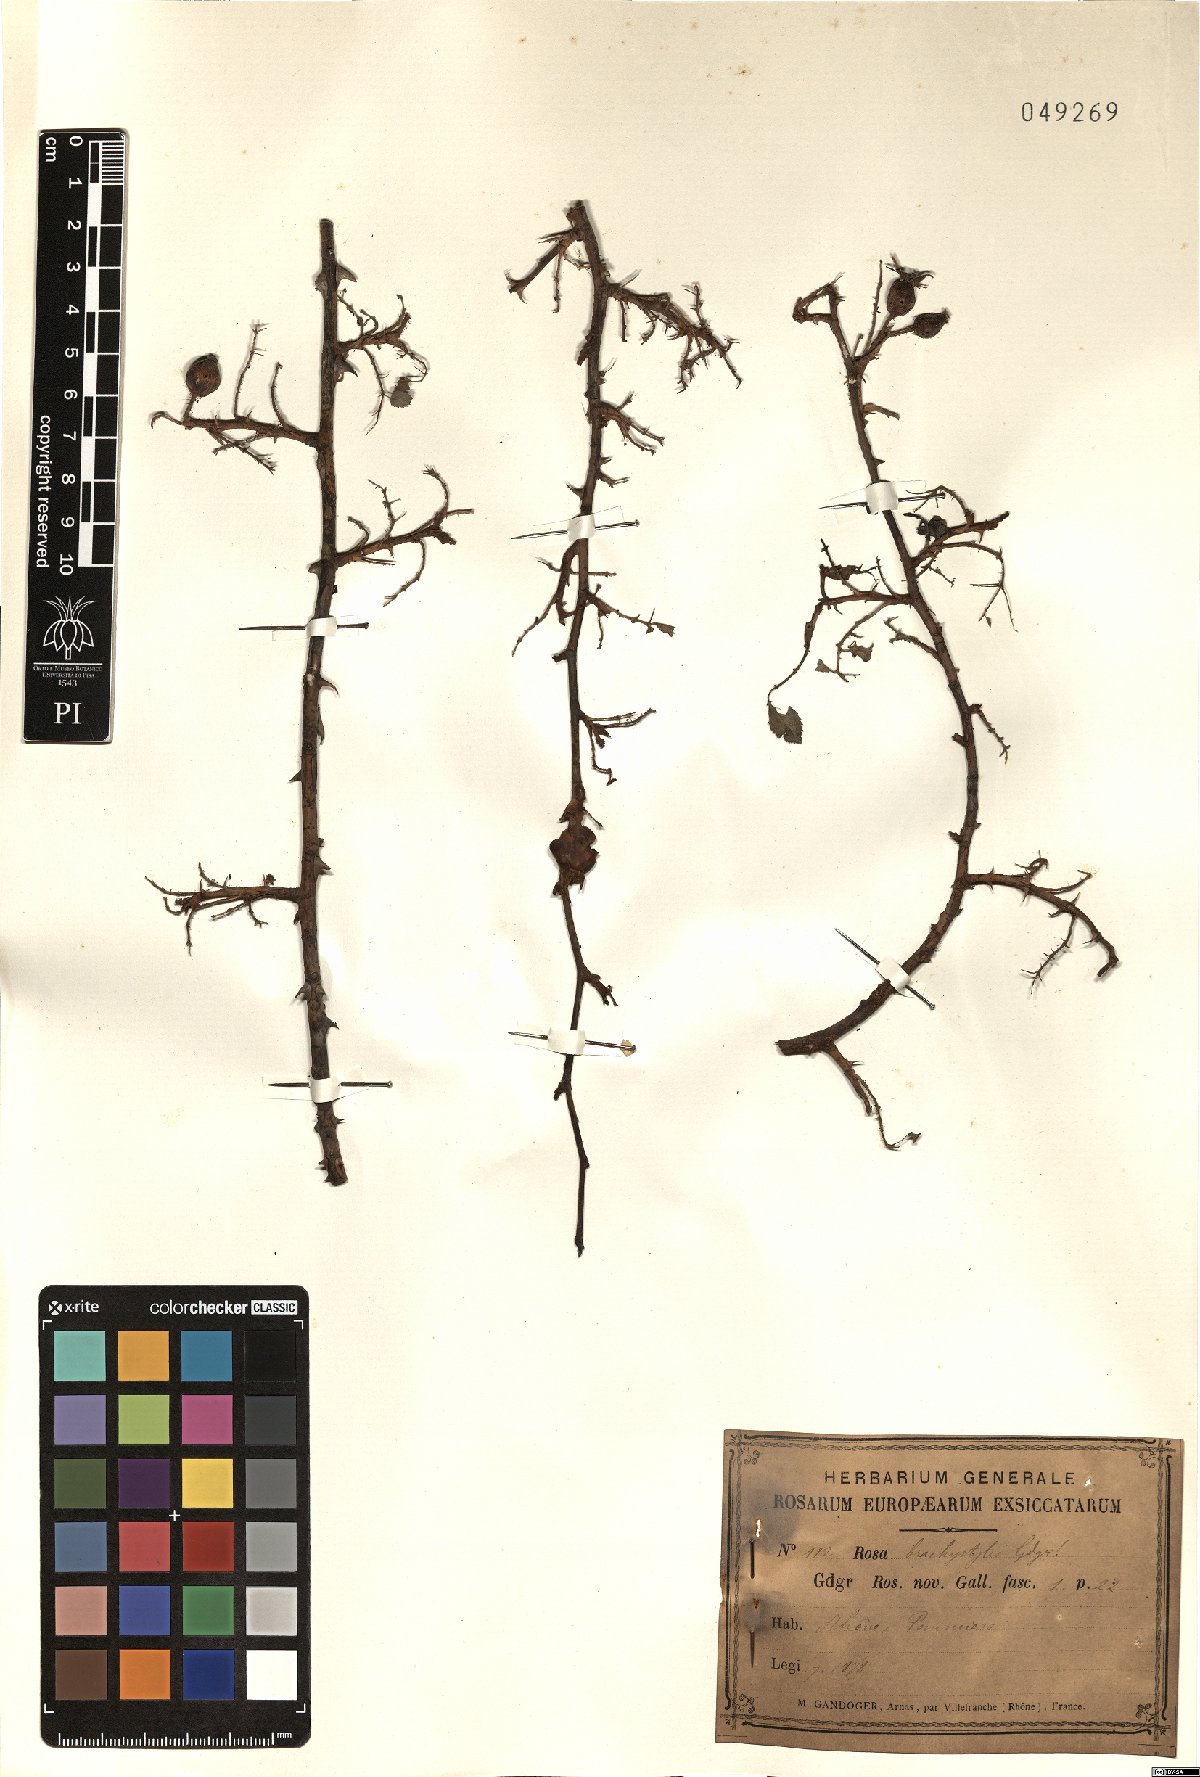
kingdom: Plantae
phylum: Tracheophyta
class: Magnoliopsida
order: Rosales
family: Rosaceae
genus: Rosa
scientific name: Rosa brachystylis
